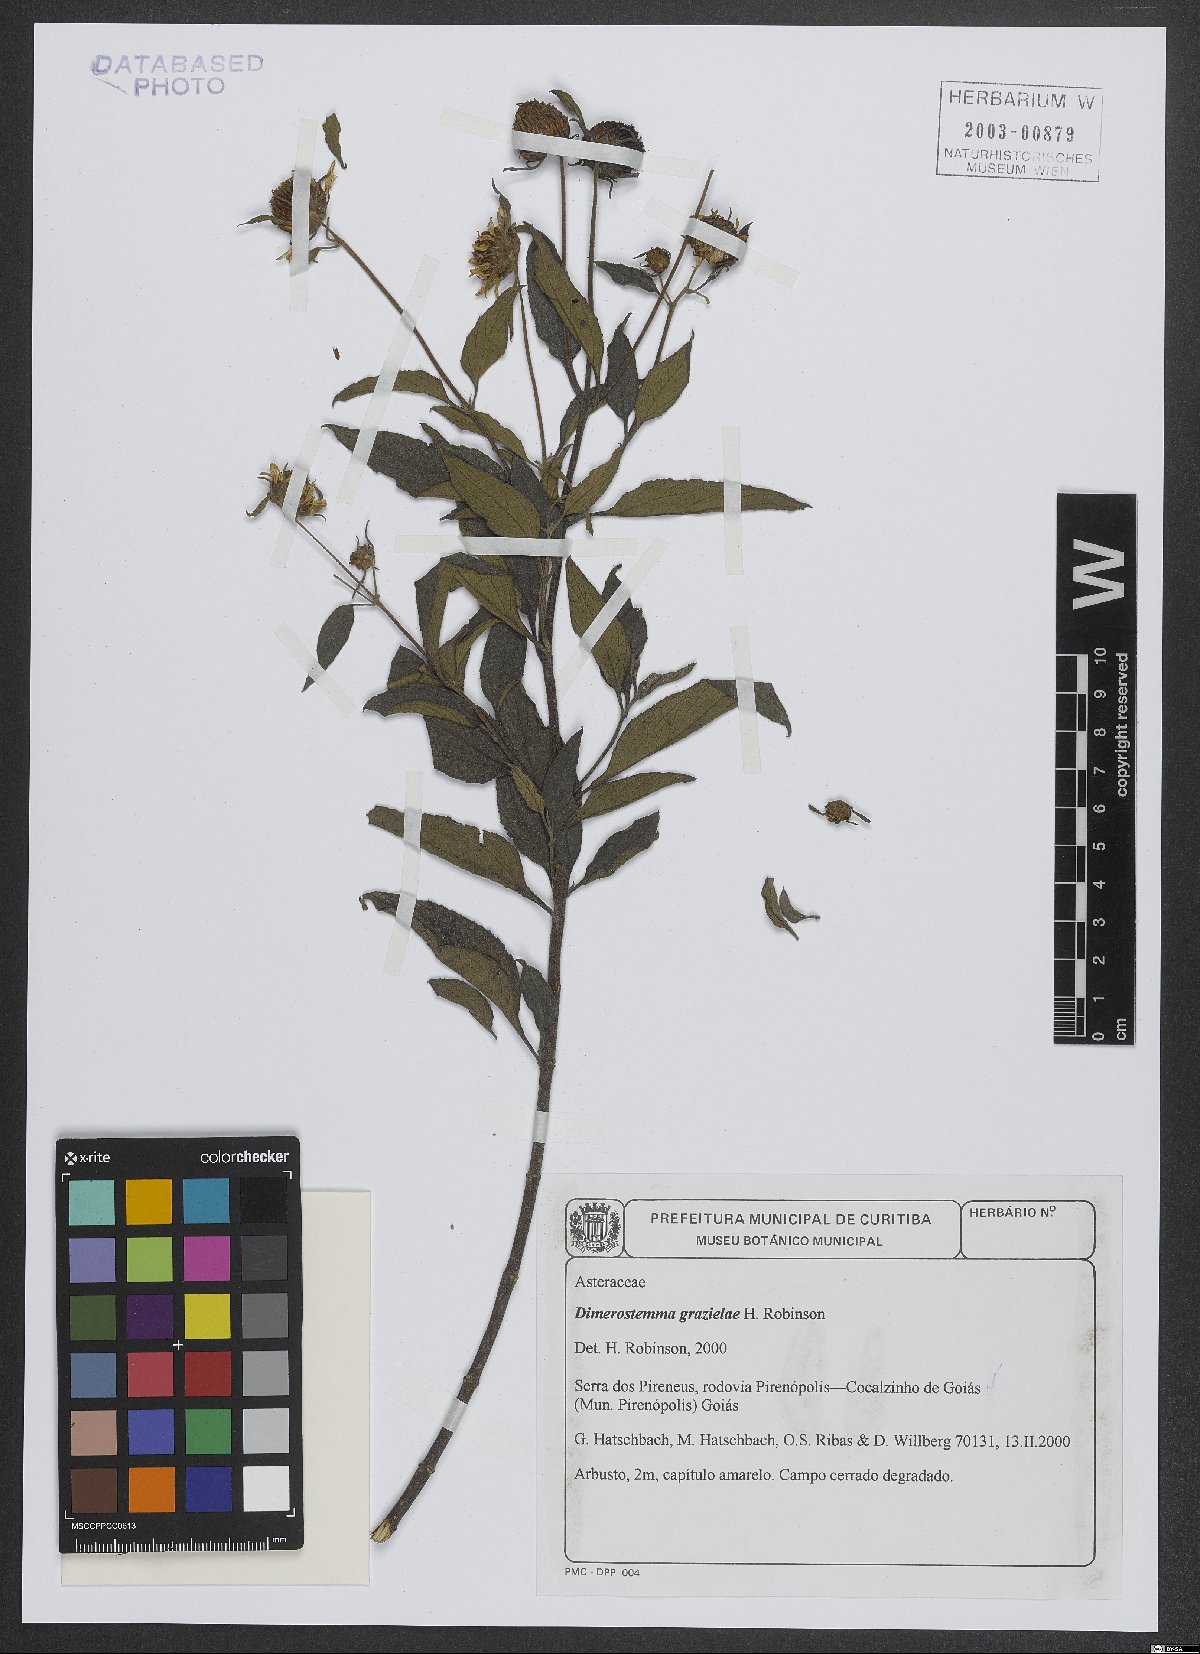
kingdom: Plantae
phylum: Tracheophyta
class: Magnoliopsida
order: Asterales
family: Asteraceae
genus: Dimerostemma
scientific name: Dimerostemma grazielae
